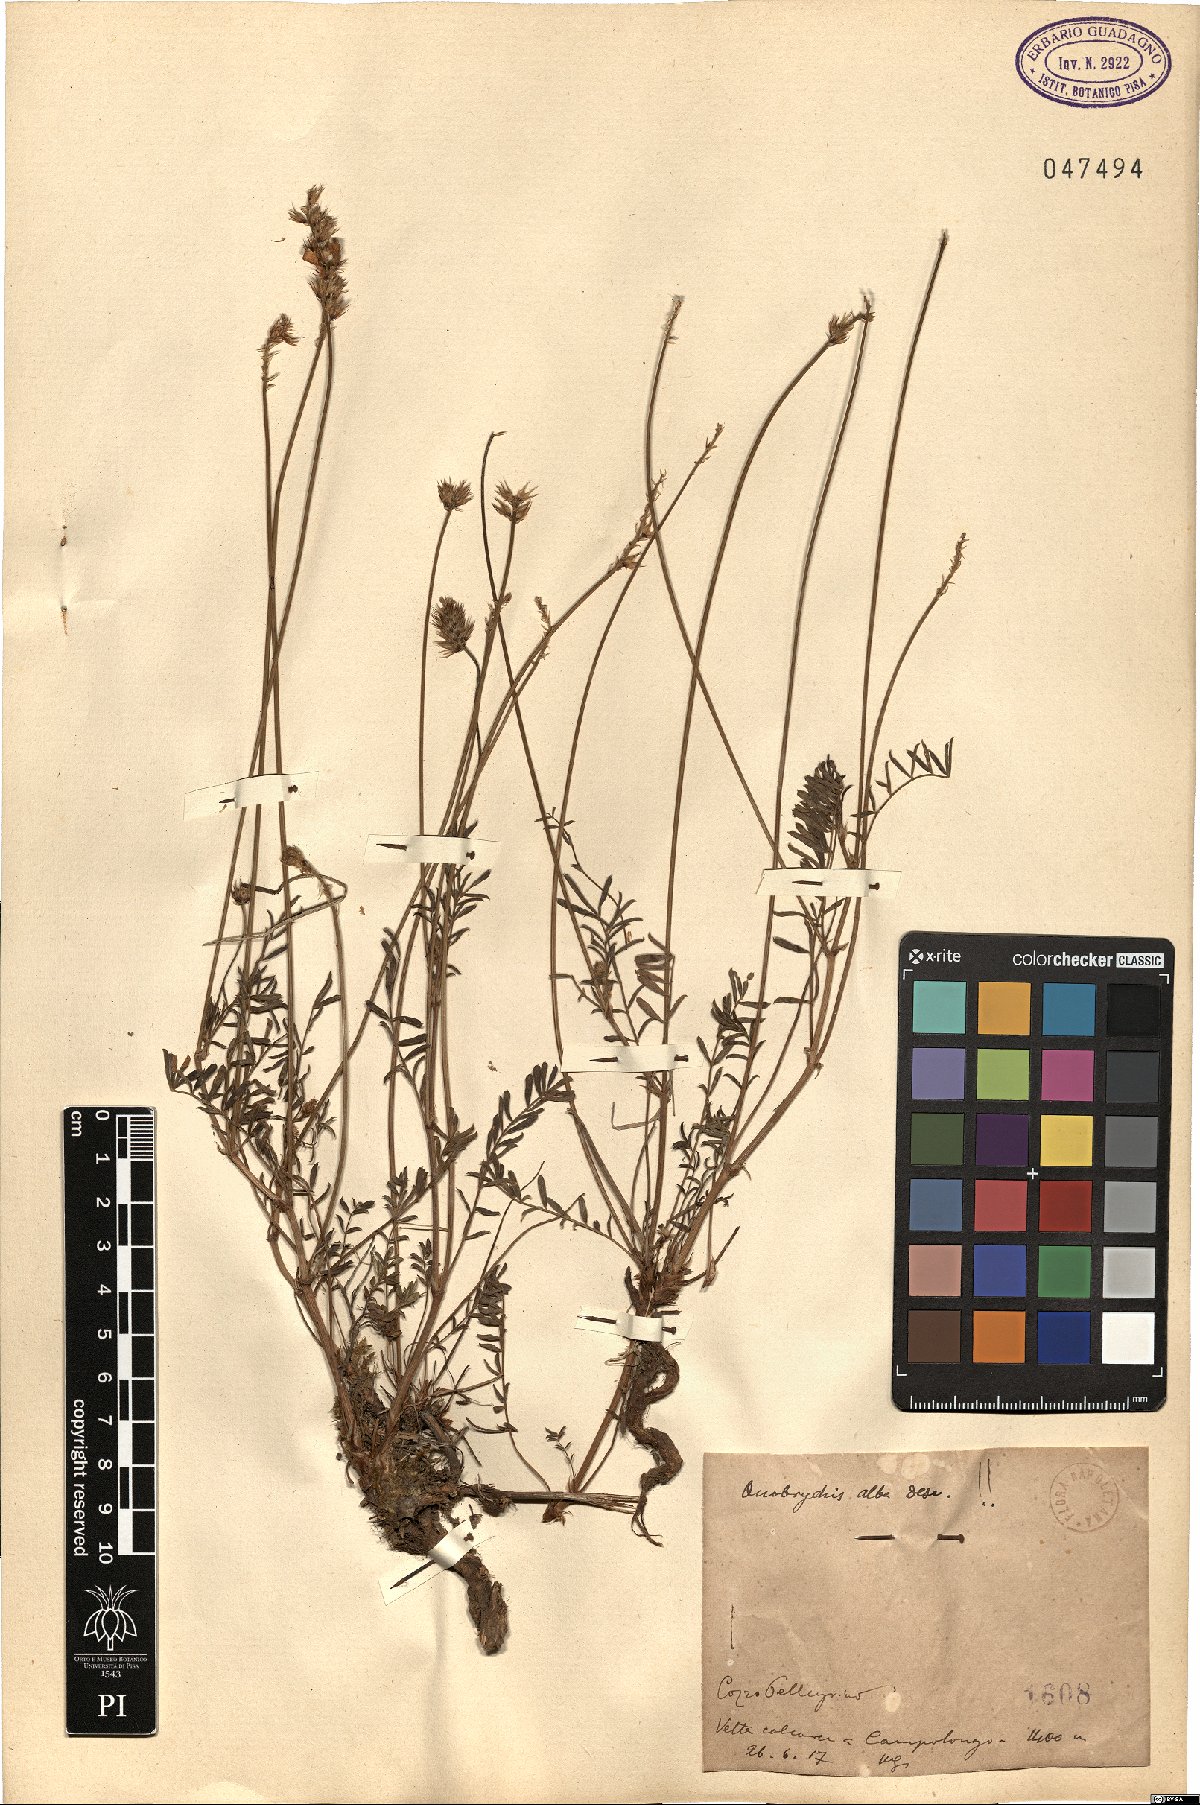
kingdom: Plantae
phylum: Tracheophyta
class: Magnoliopsida
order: Fabales
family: Fabaceae
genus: Onobrychis
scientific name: Onobrychis alba
